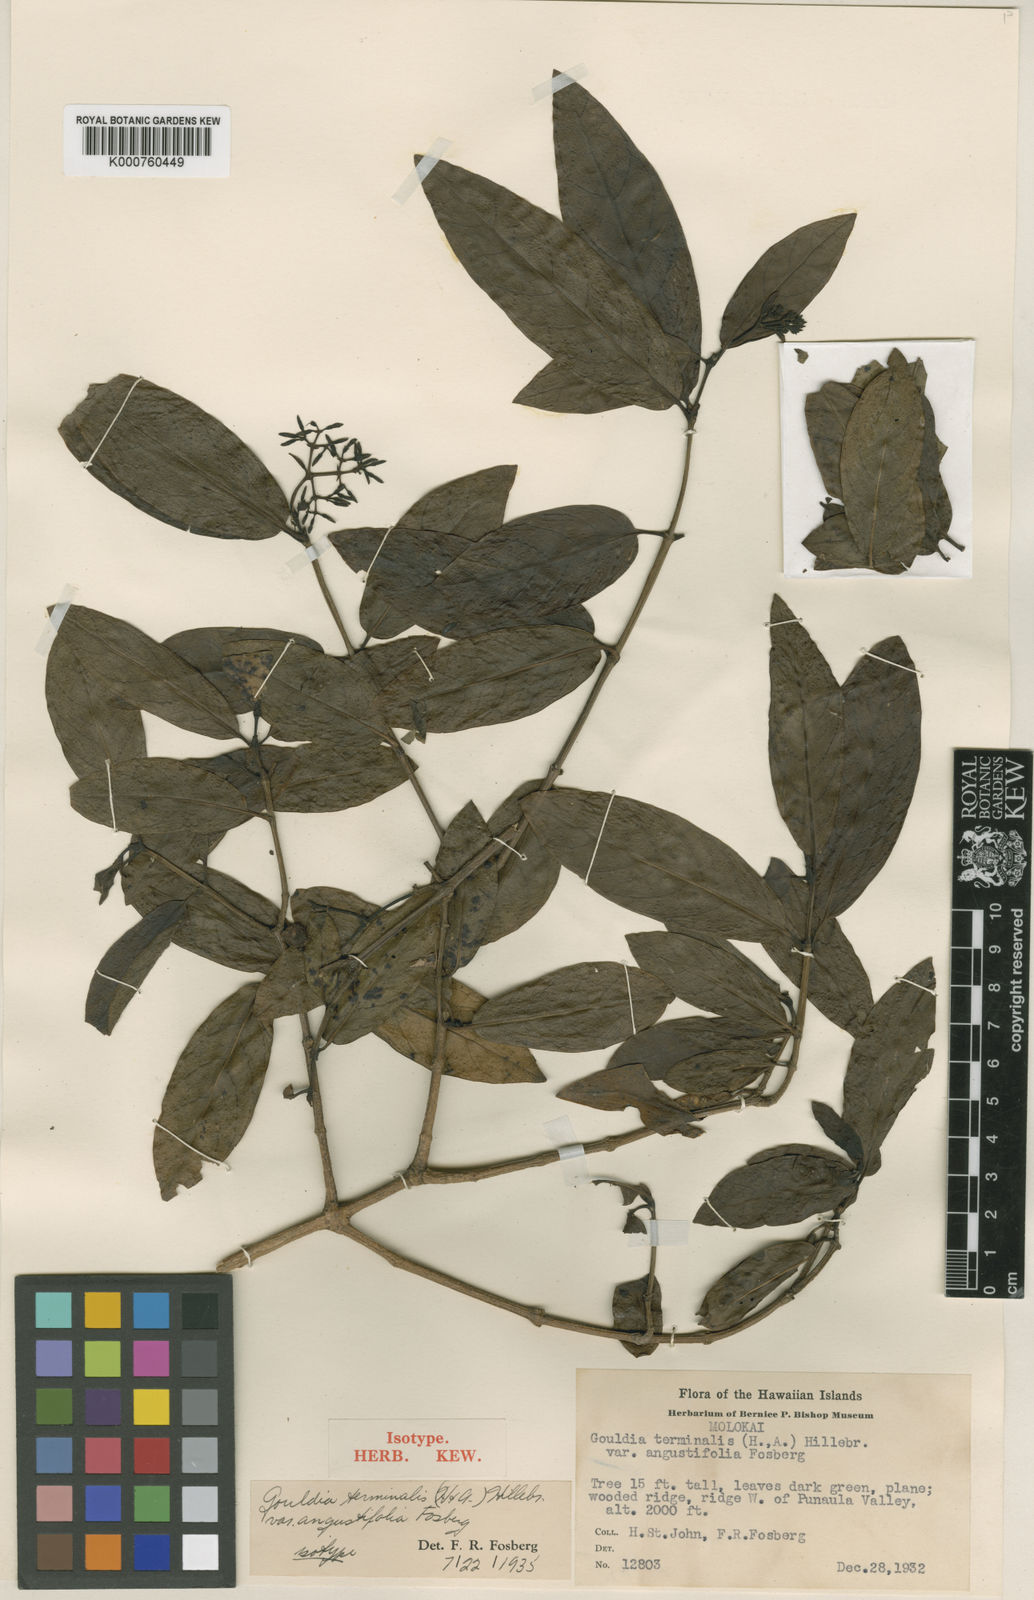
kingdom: Plantae
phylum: Tracheophyta
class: Magnoliopsida
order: Gentianales
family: Rubiaceae
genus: Kadua
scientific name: Kadua affinis
